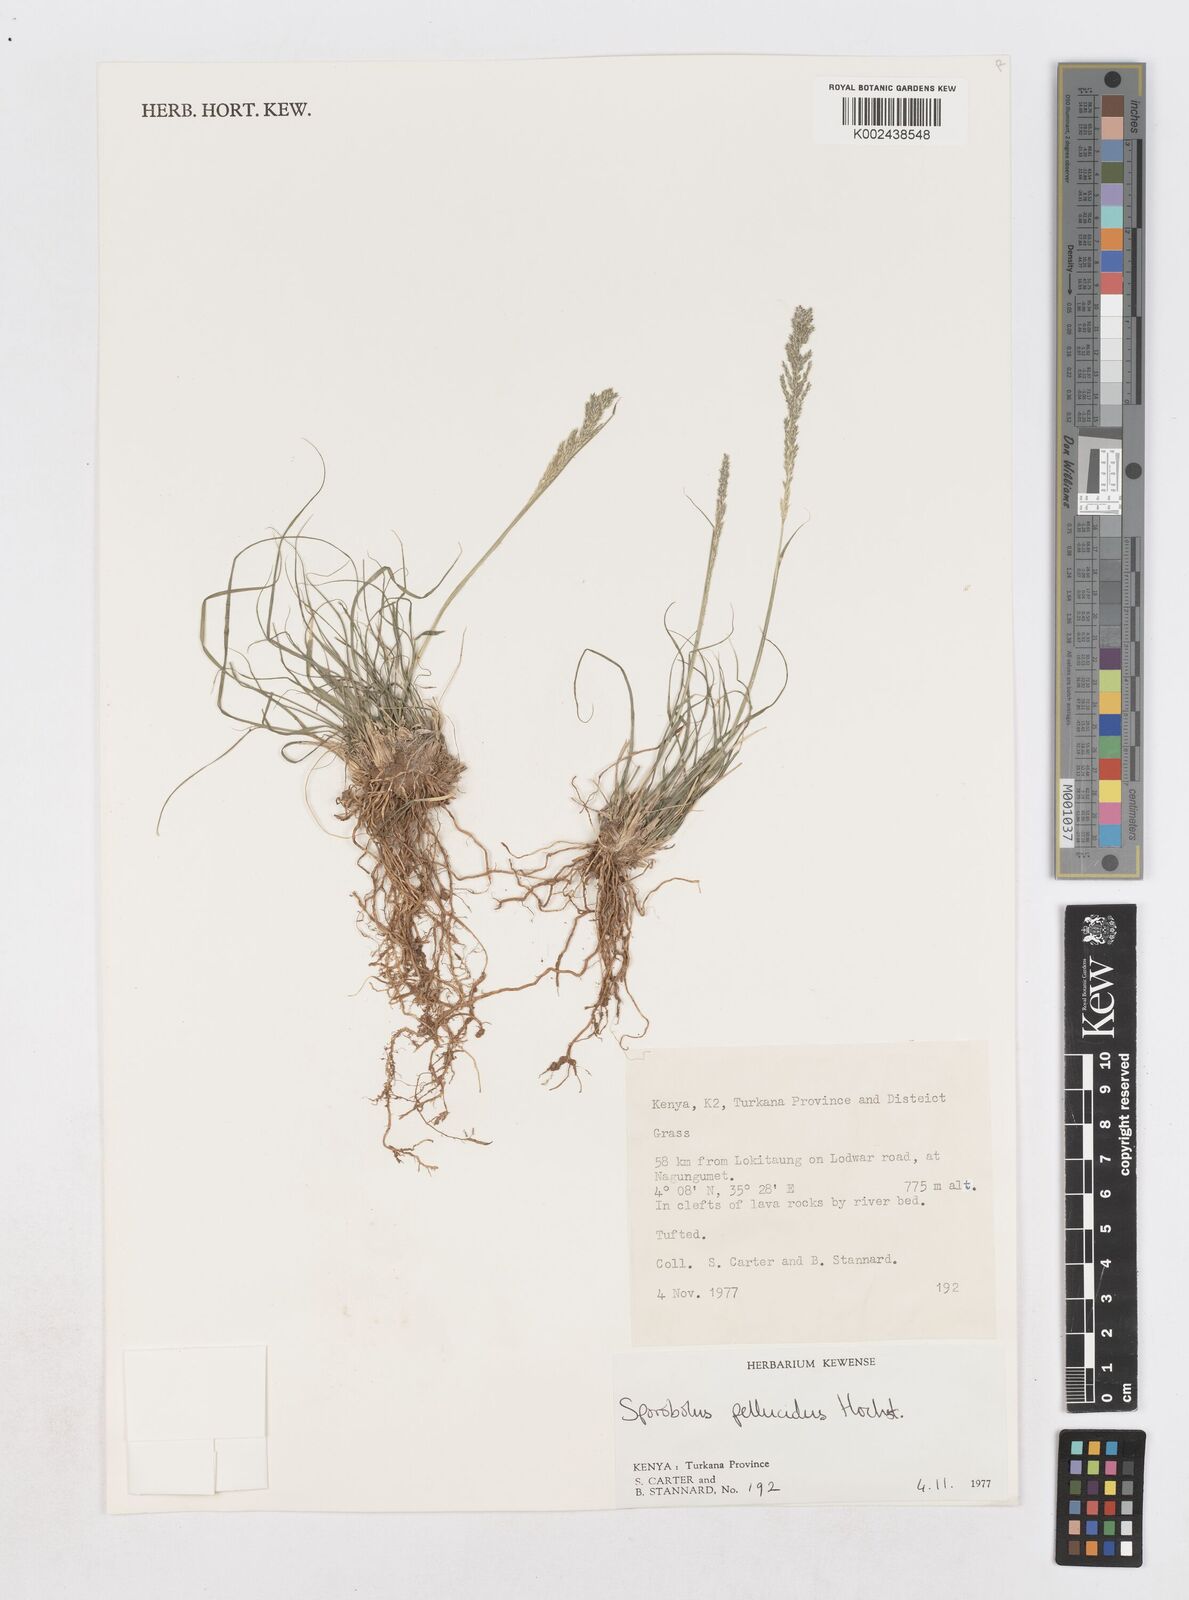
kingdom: Plantae
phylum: Tracheophyta
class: Liliopsida
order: Poales
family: Poaceae
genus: Sporobolus
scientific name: Sporobolus pellucidus
